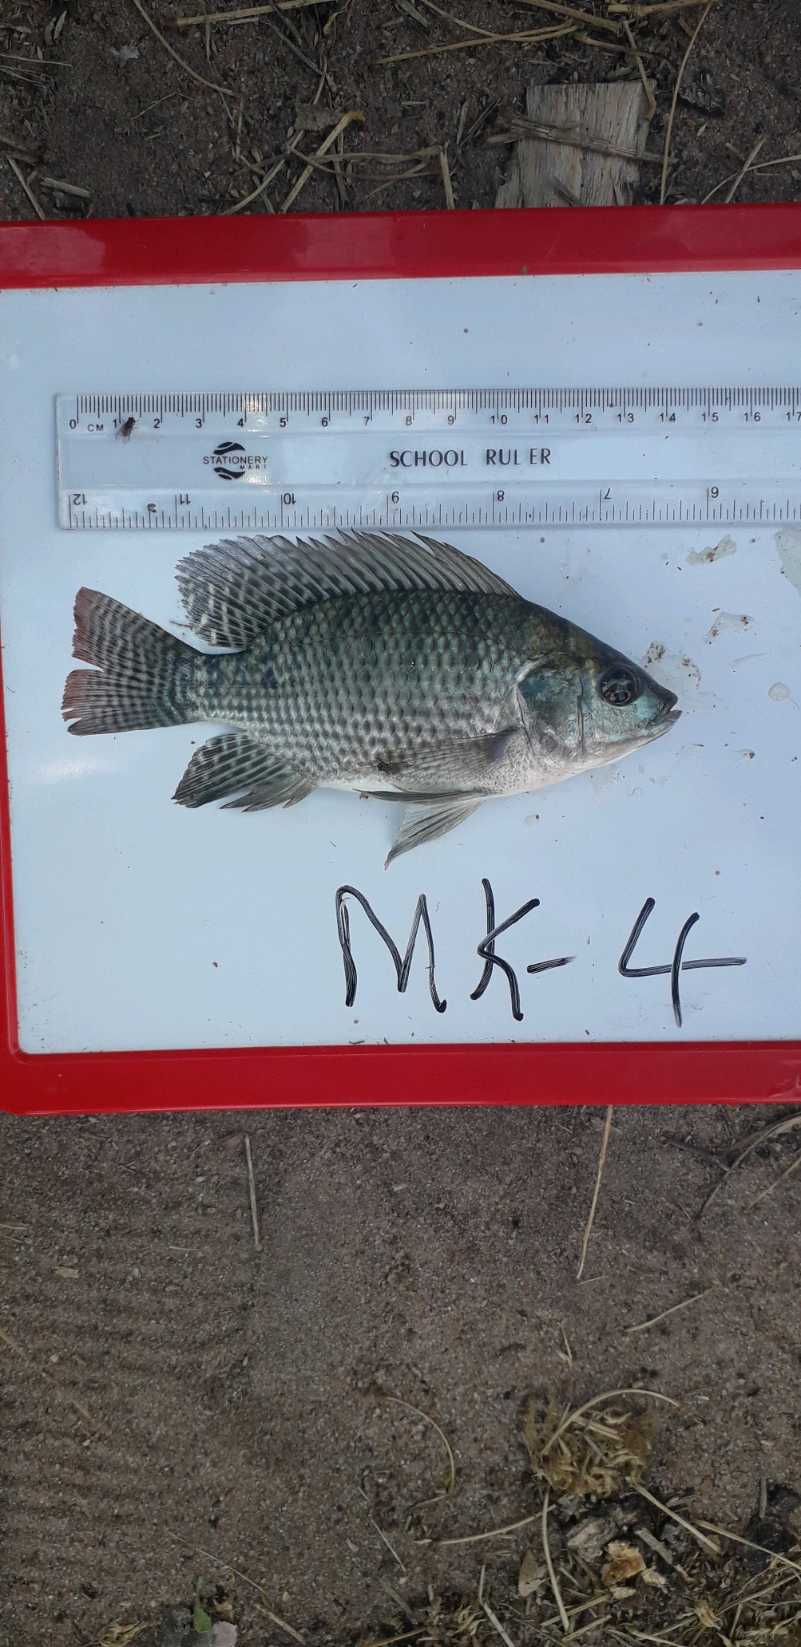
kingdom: Animalia
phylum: Chordata
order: Perciformes
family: Cichlidae
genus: Oreochromis
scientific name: Oreochromis niloticus
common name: Nile tilapia
